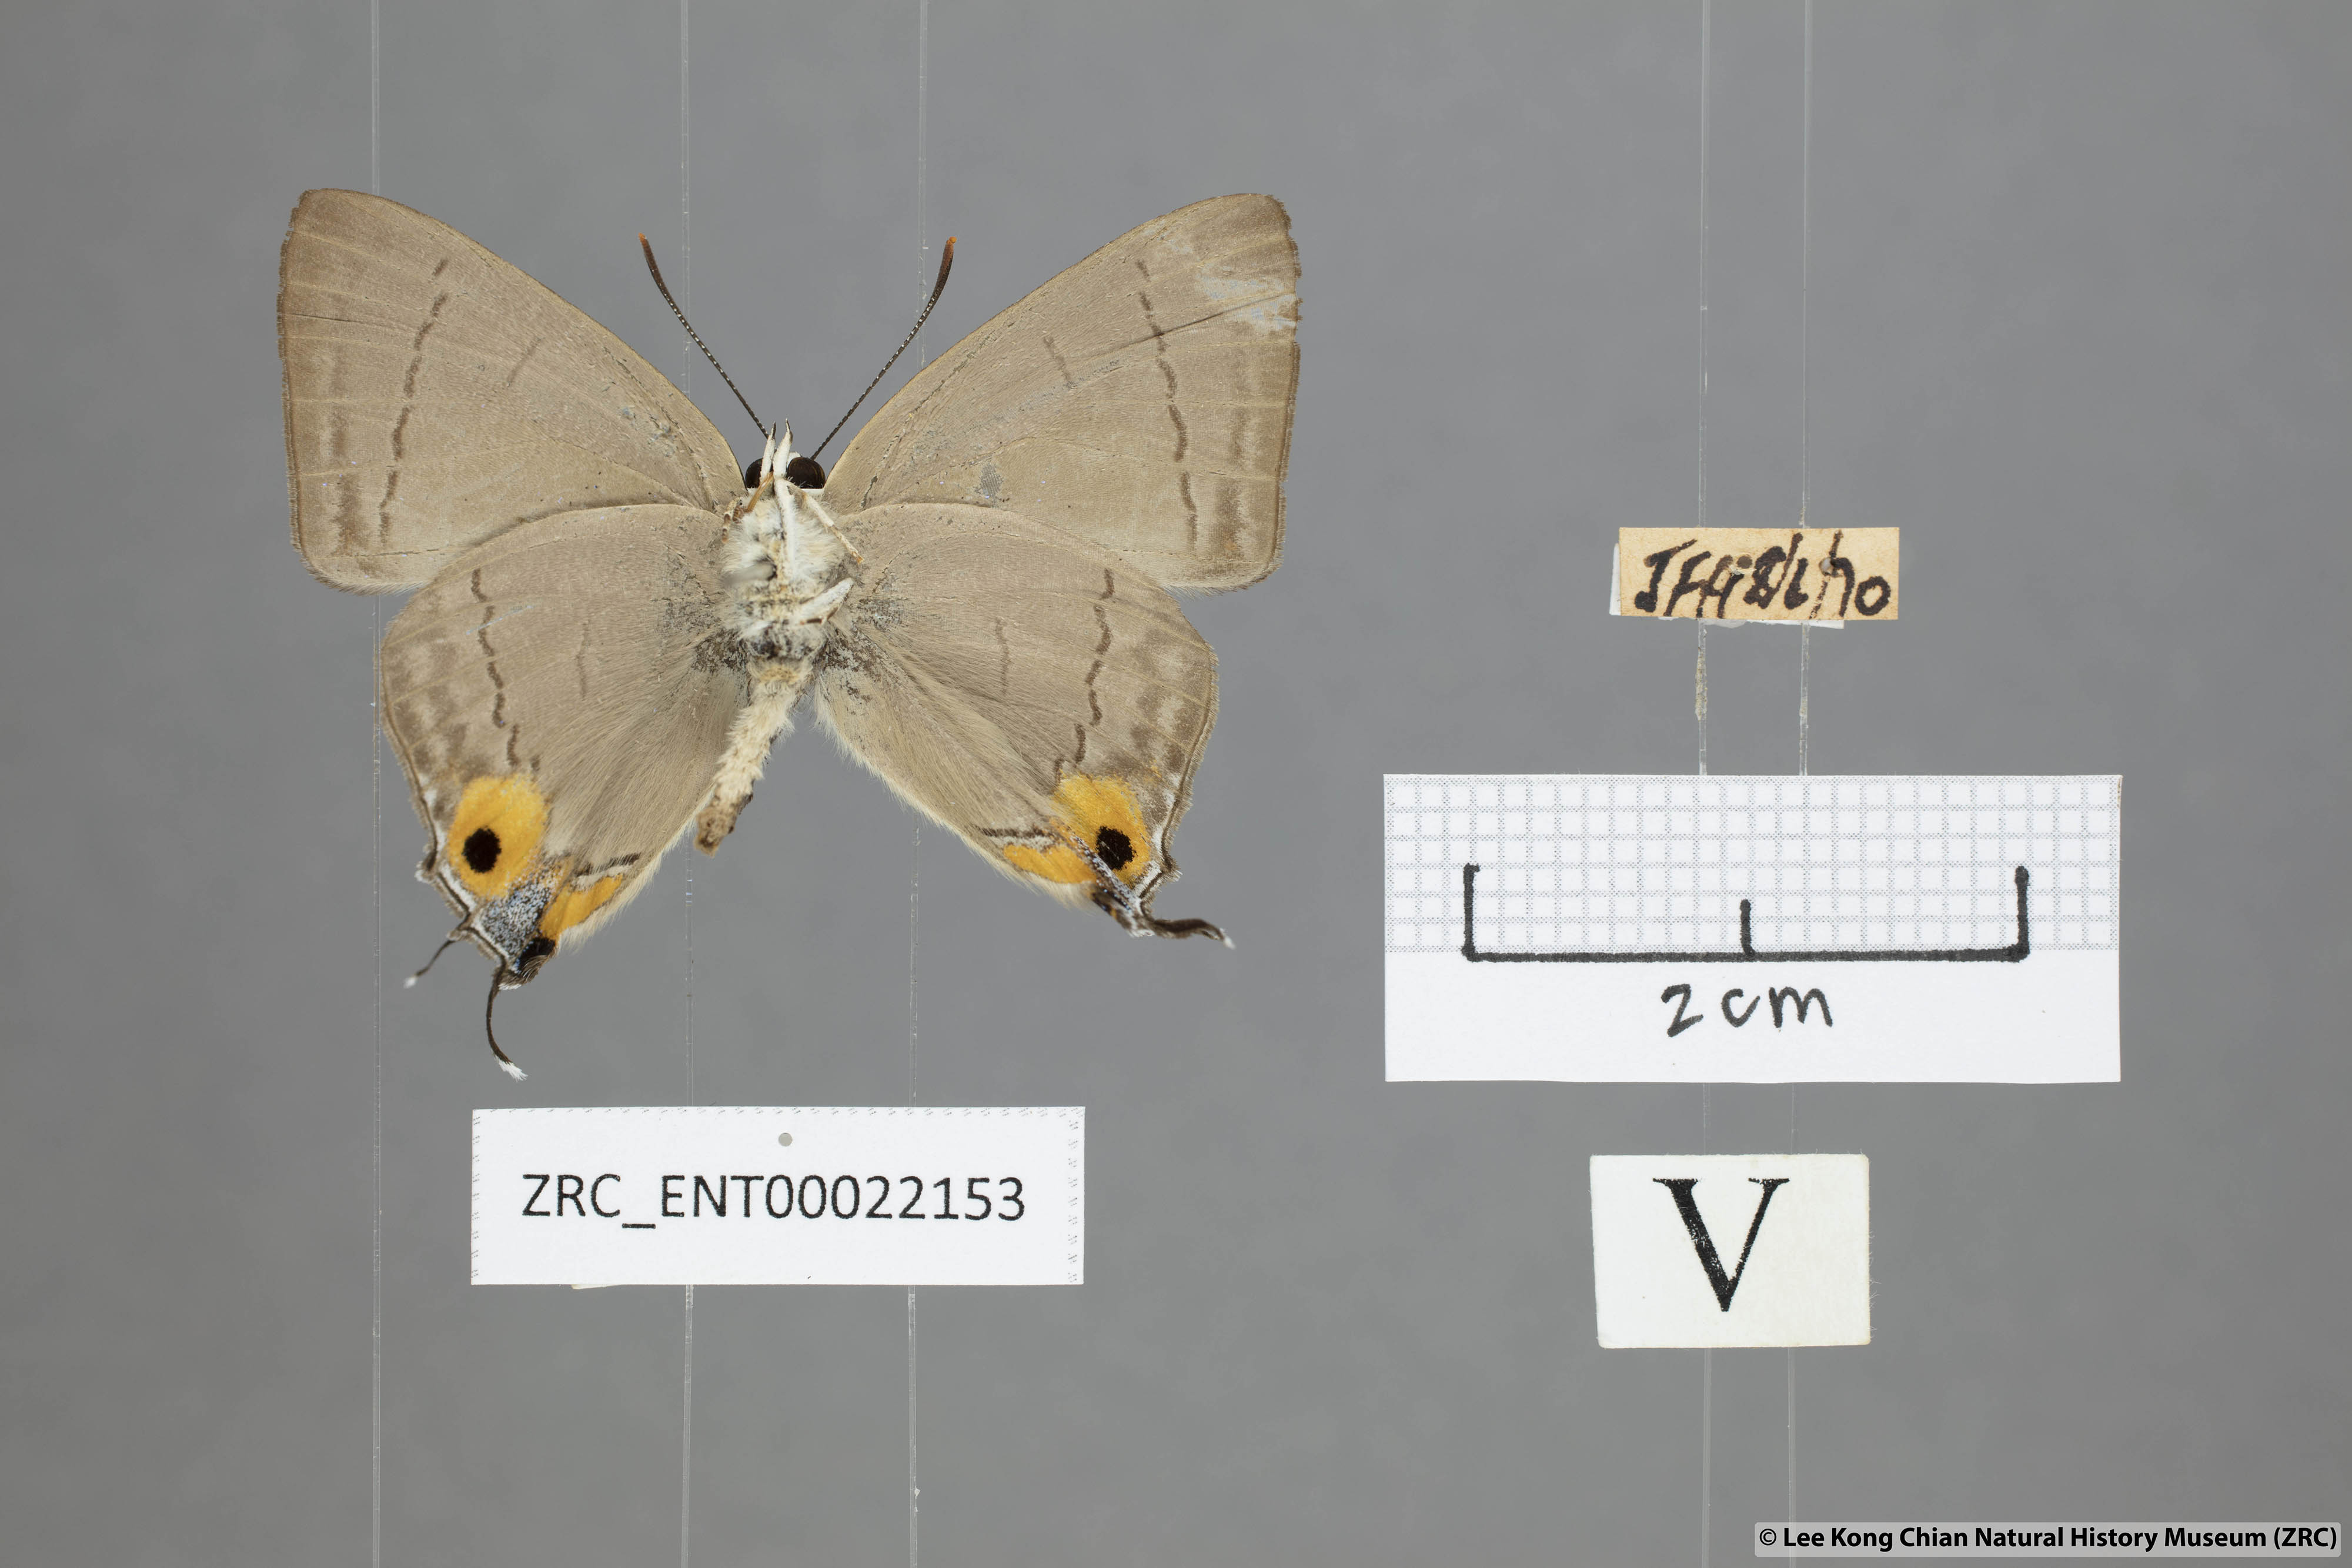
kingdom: Animalia
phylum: Arthropoda
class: Insecta
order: Lepidoptera
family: Lycaenidae
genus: Tajuria
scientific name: Tajuria albiplaga
